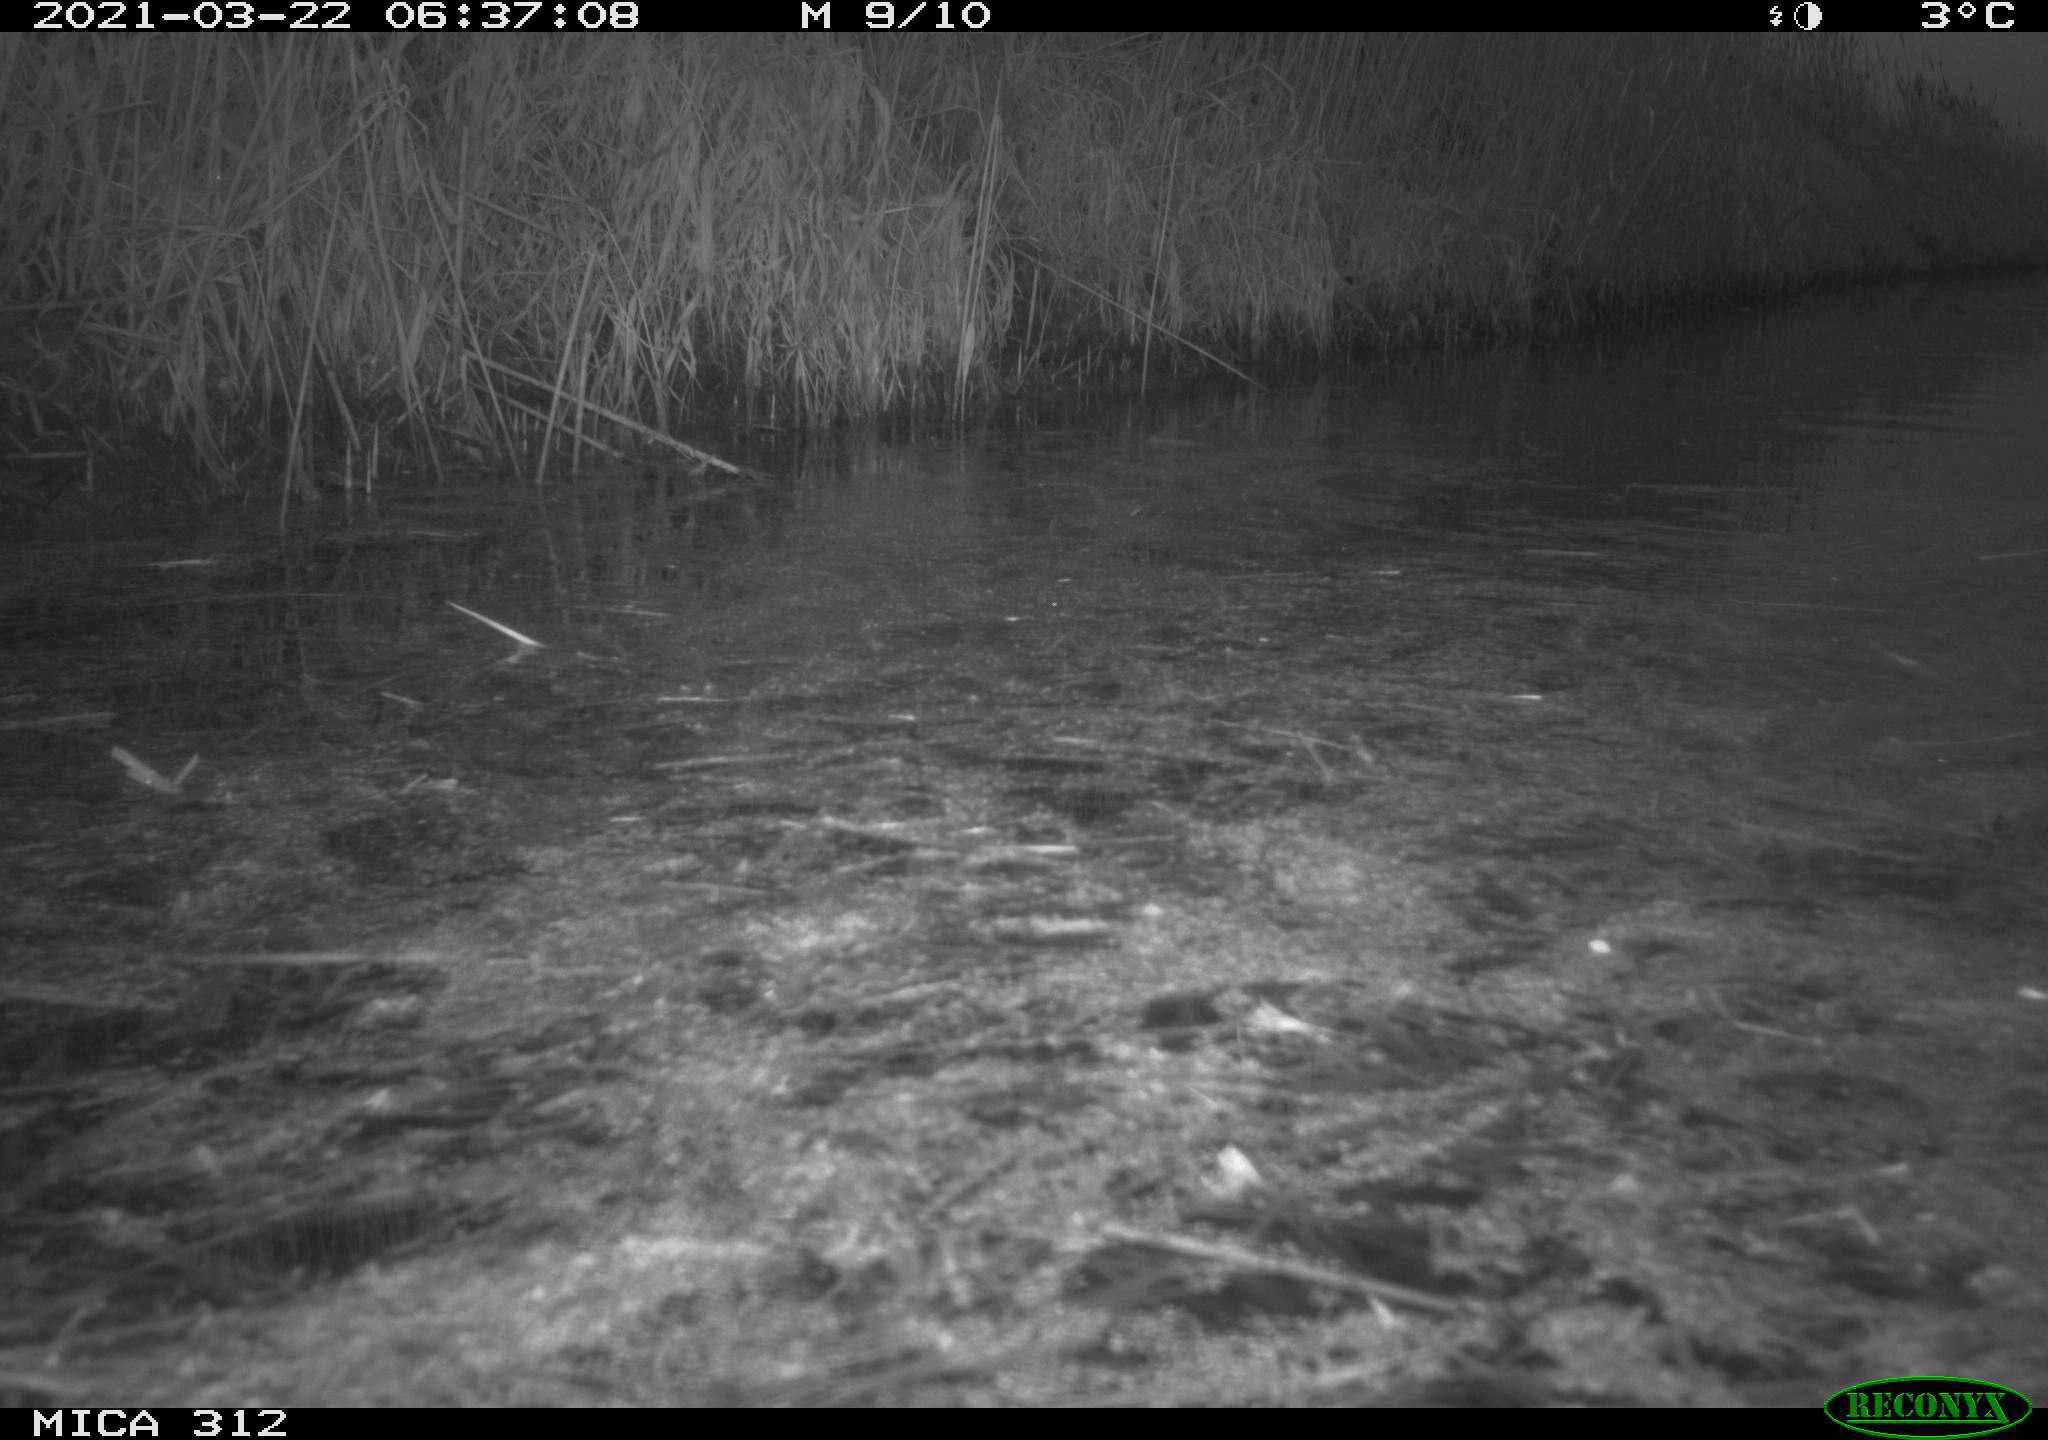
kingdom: Animalia
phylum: Chordata
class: Aves
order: Gruiformes
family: Rallidae
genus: Fulica
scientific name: Fulica atra
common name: Eurasian coot
